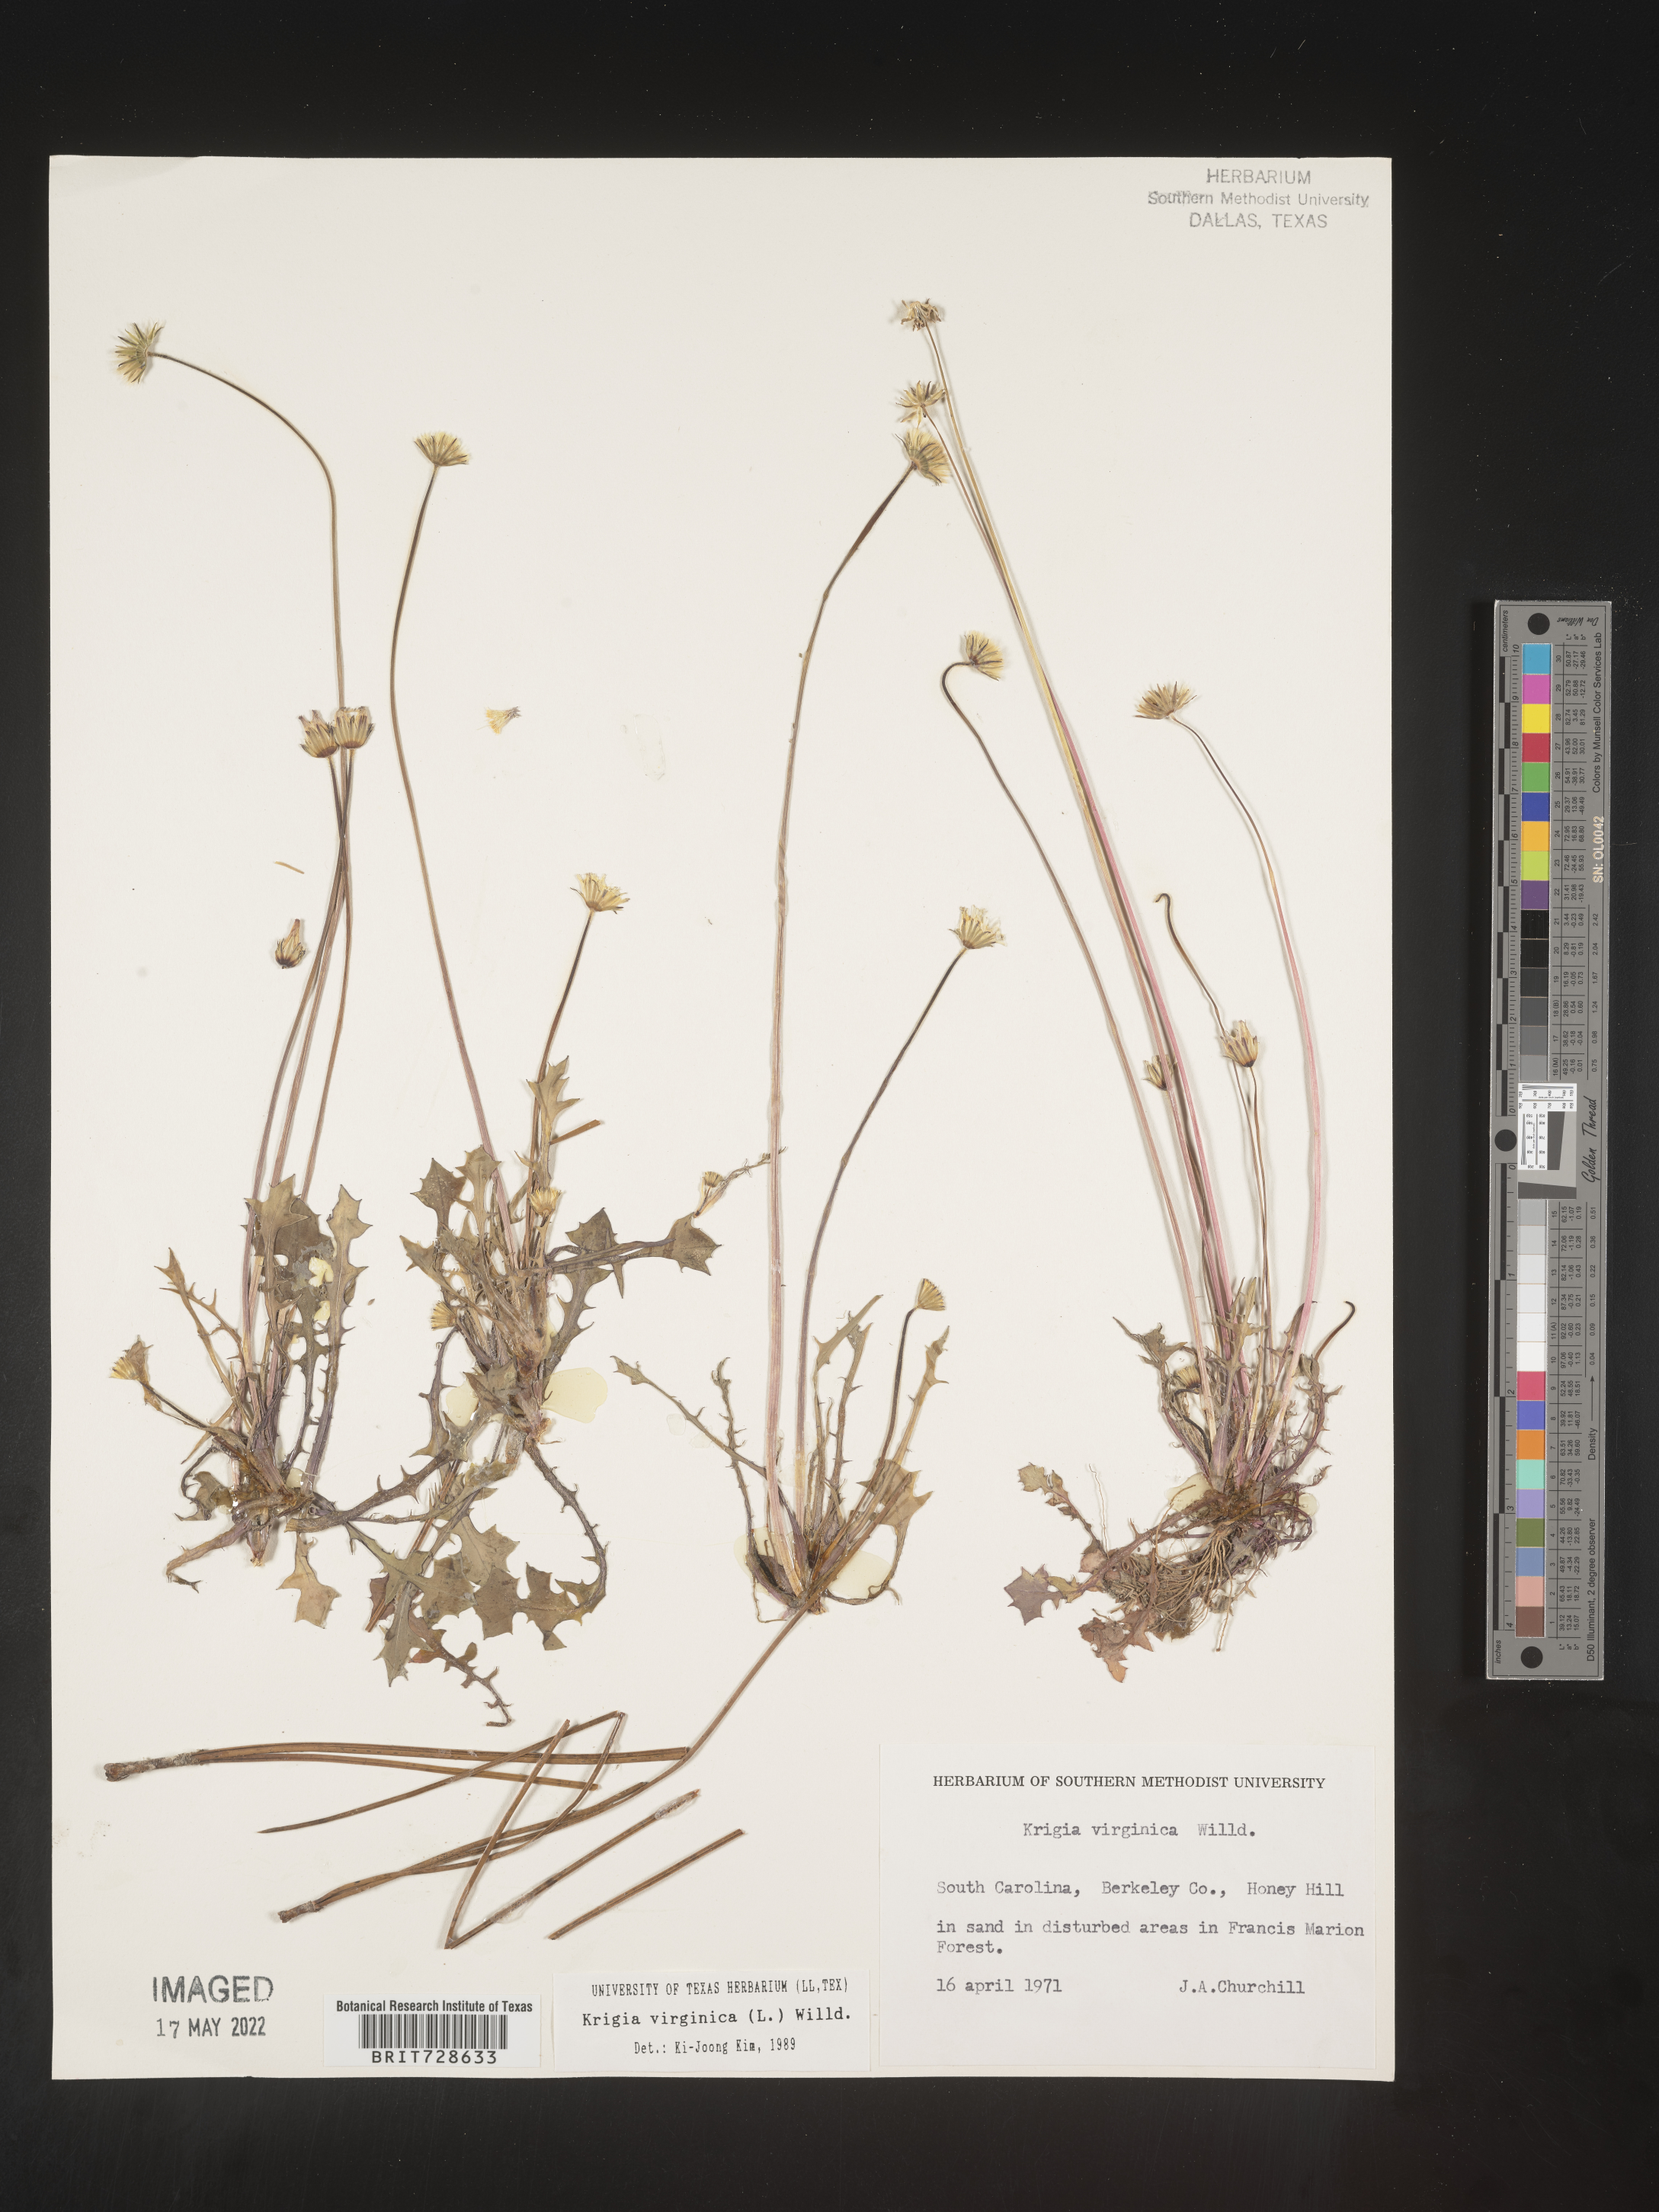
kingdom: Plantae
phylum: Tracheophyta
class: Magnoliopsida
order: Asterales
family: Asteraceae
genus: Krigia
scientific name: Krigia virginica
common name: Virginia dwarf-dandelion
